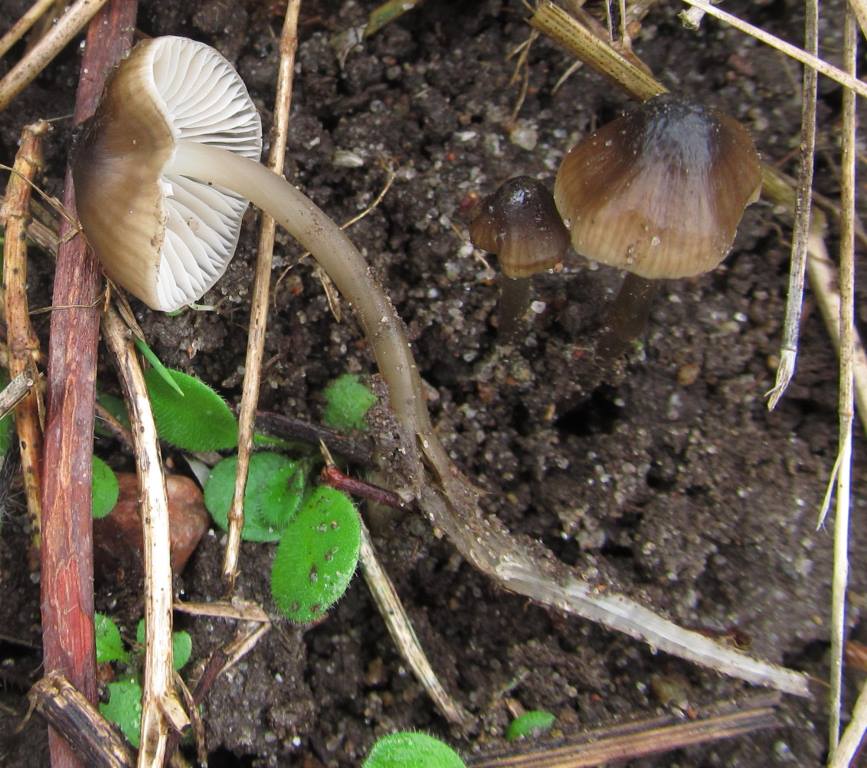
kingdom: Fungi
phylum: Basidiomycota
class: Agaricomycetes
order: Agaricales
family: Porotheleaceae
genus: Phloeomana
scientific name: Phloeomana atropapillata
